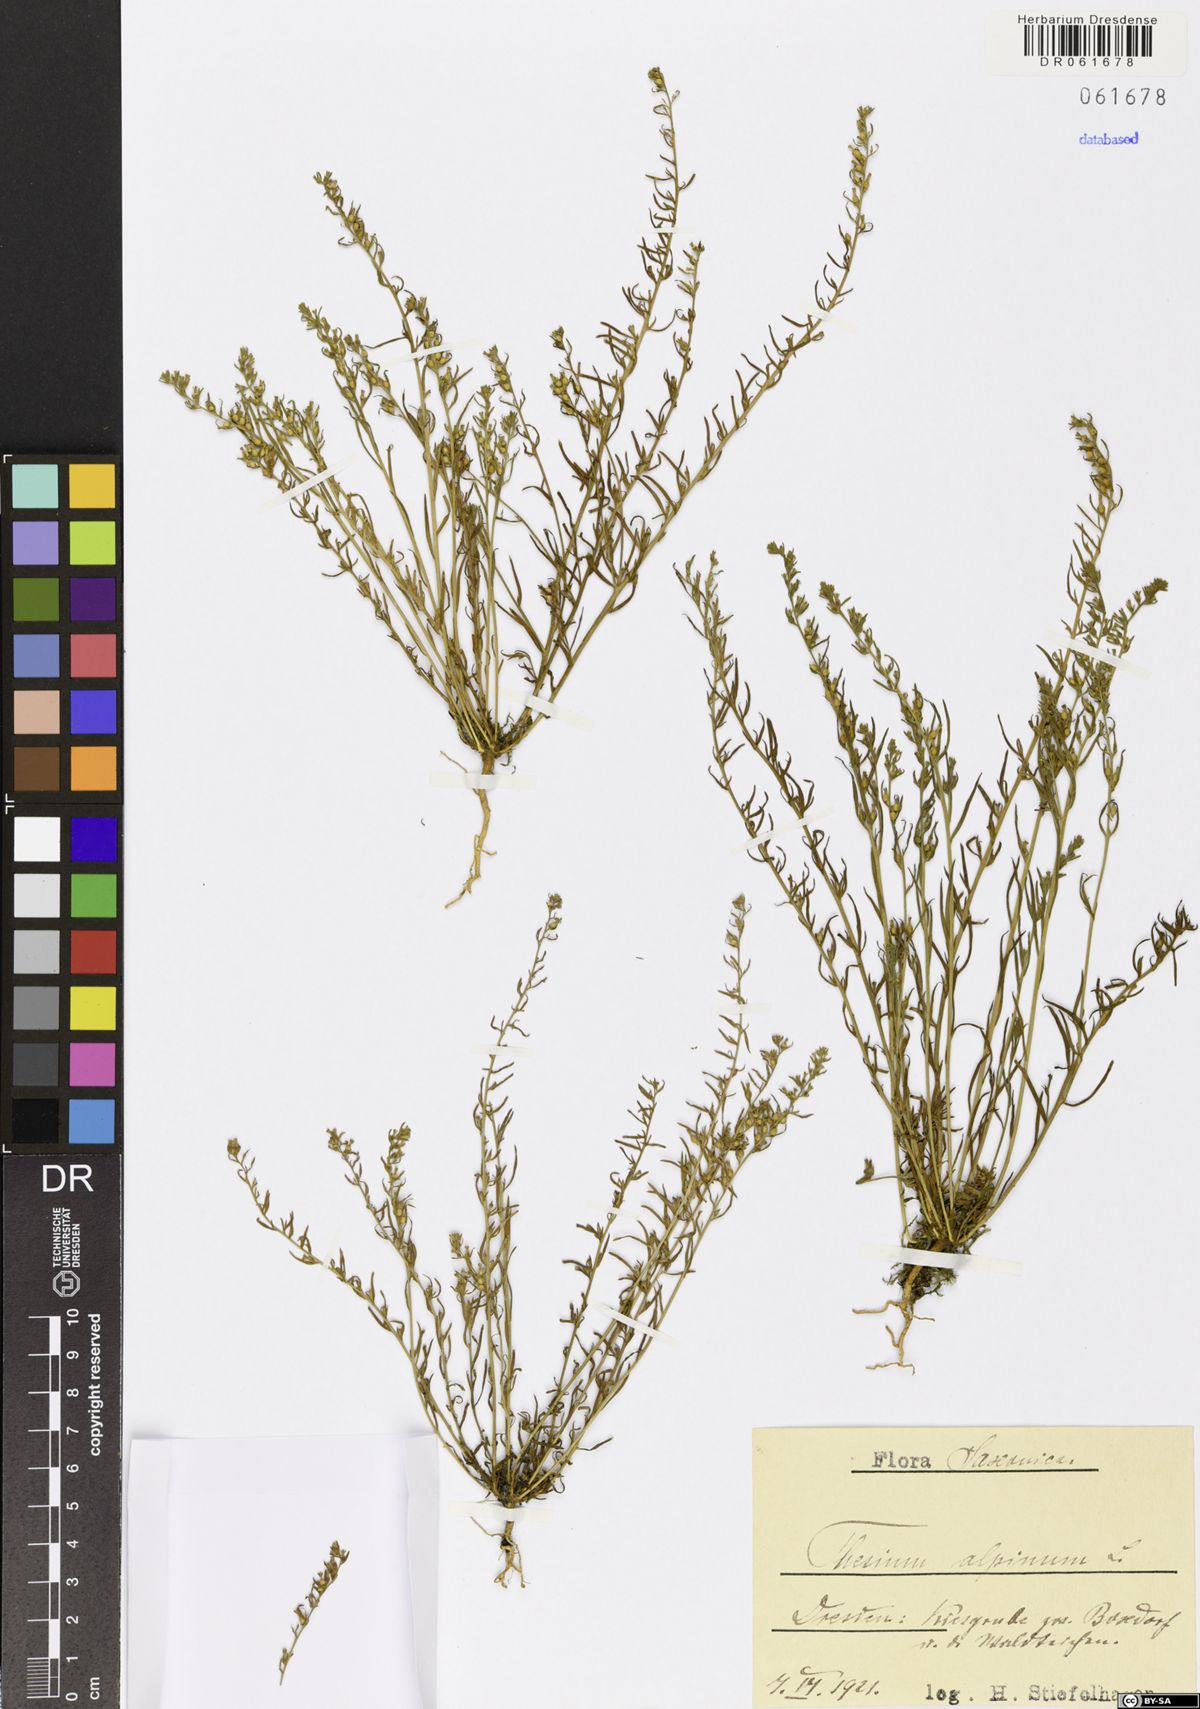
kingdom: Plantae
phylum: Tracheophyta
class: Magnoliopsida
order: Santalales
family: Thesiaceae
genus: Thesium
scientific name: Thesium alpinum
